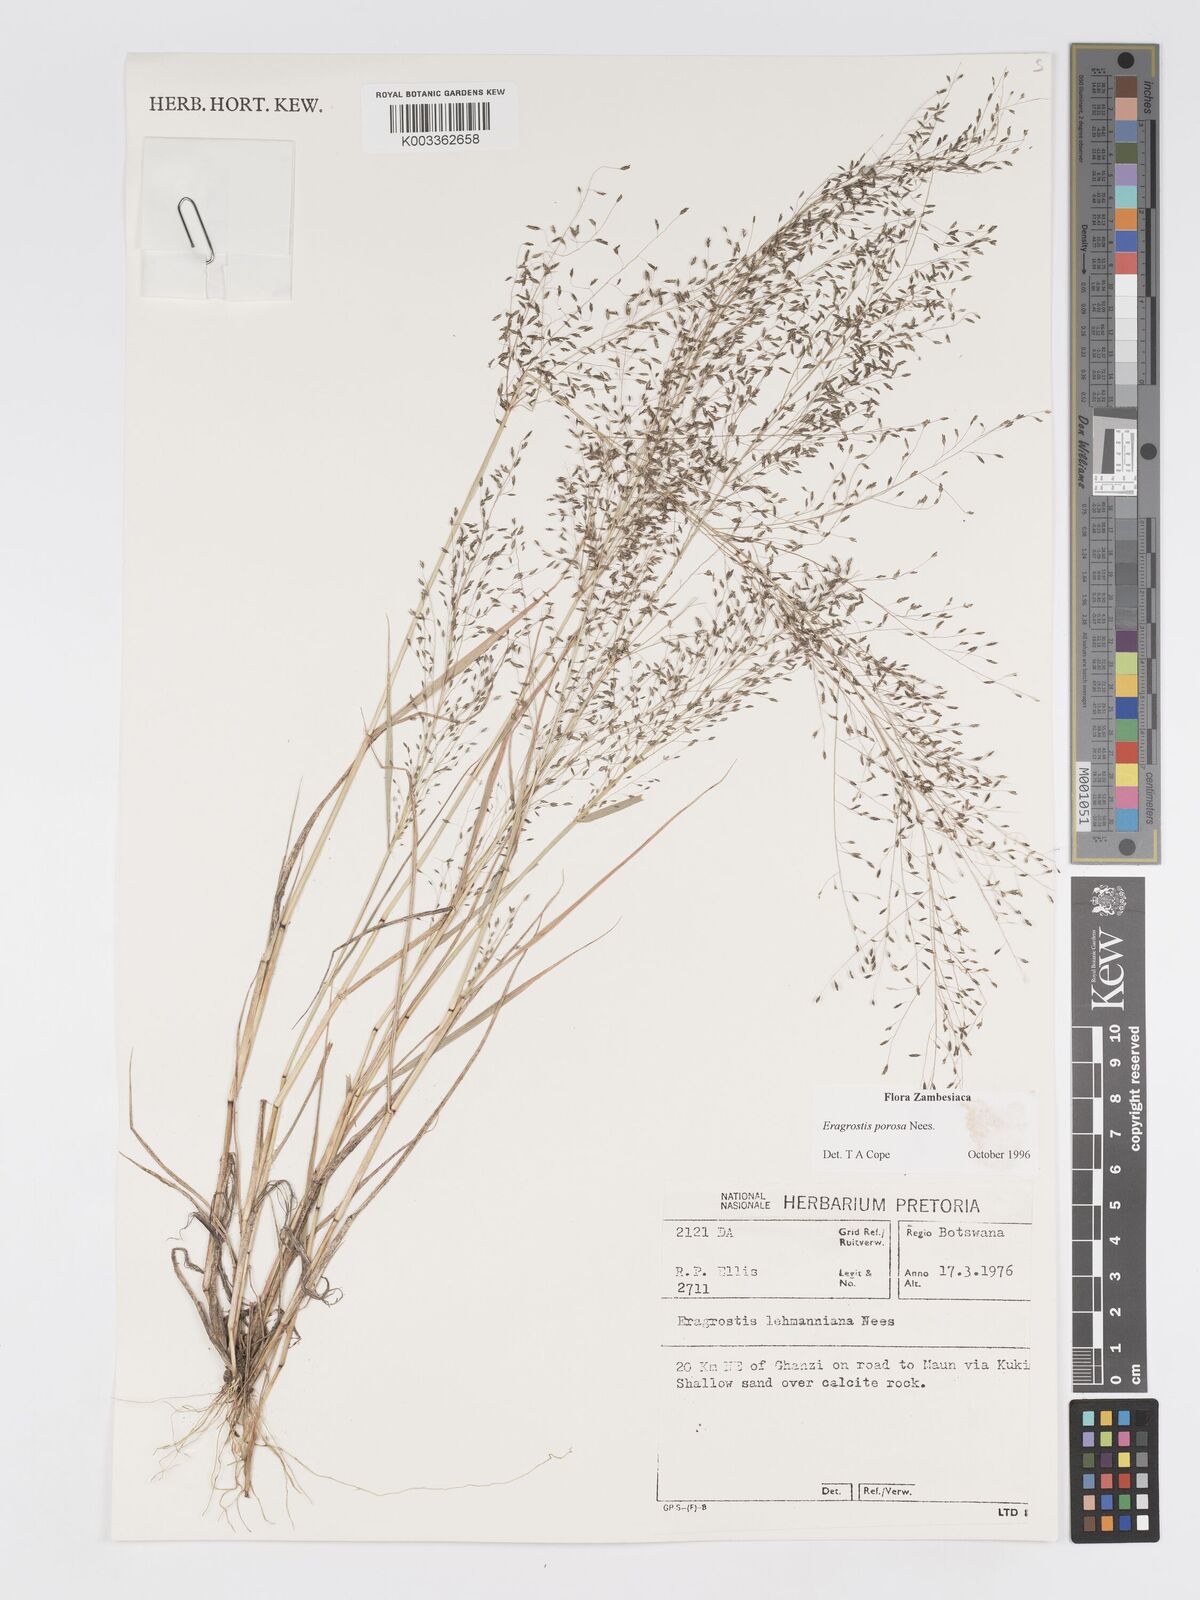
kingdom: Plantae
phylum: Tracheophyta
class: Liliopsida
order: Poales
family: Poaceae
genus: Eragrostis
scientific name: Eragrostis porosa
